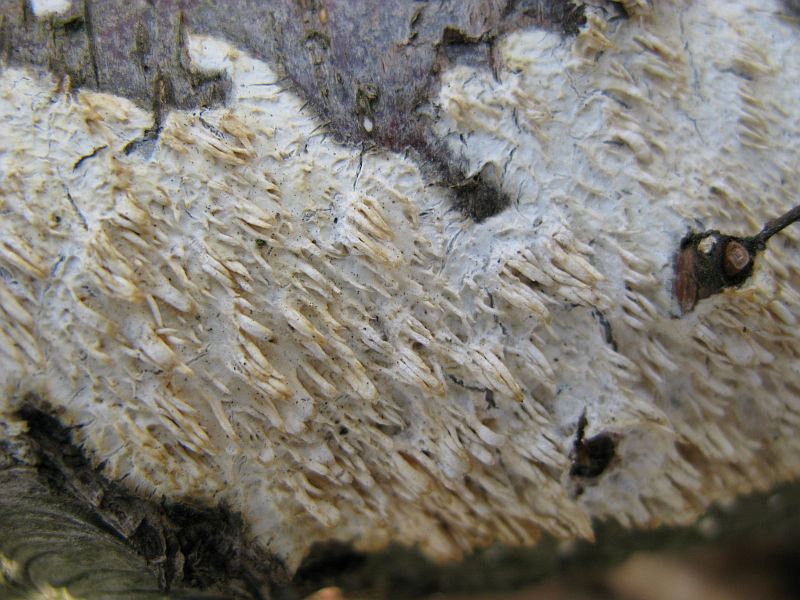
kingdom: Fungi
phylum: Basidiomycota
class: Agaricomycetes
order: Hymenochaetales
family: Schizoporaceae
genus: Xylodon
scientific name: Xylodon radula
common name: grovtandet kalkskind
